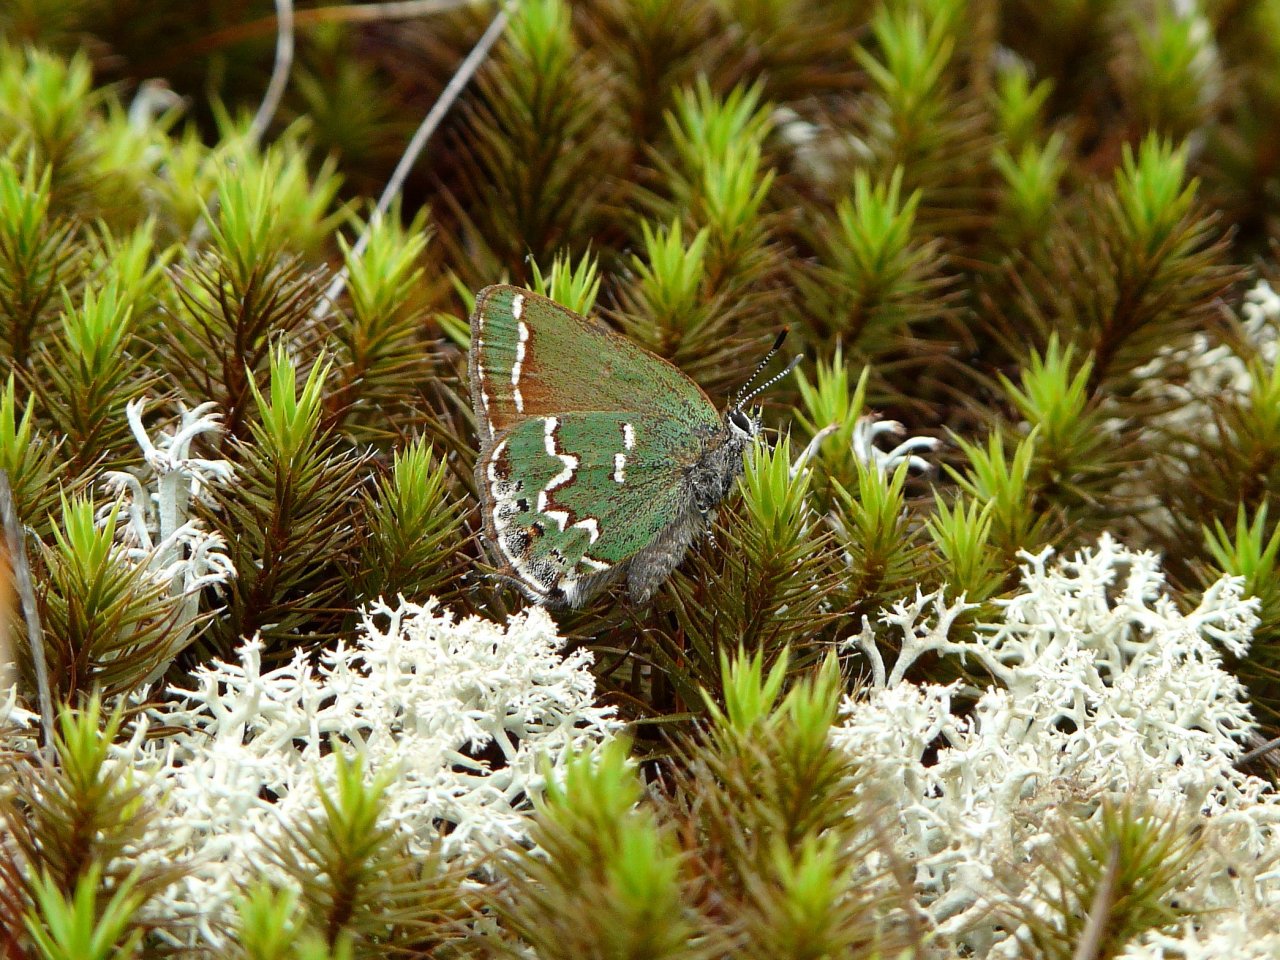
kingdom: Animalia
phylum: Arthropoda
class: Insecta
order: Lepidoptera
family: Lycaenidae
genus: Mitoura
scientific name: Mitoura gryneus
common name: Juniper Hairstreak
